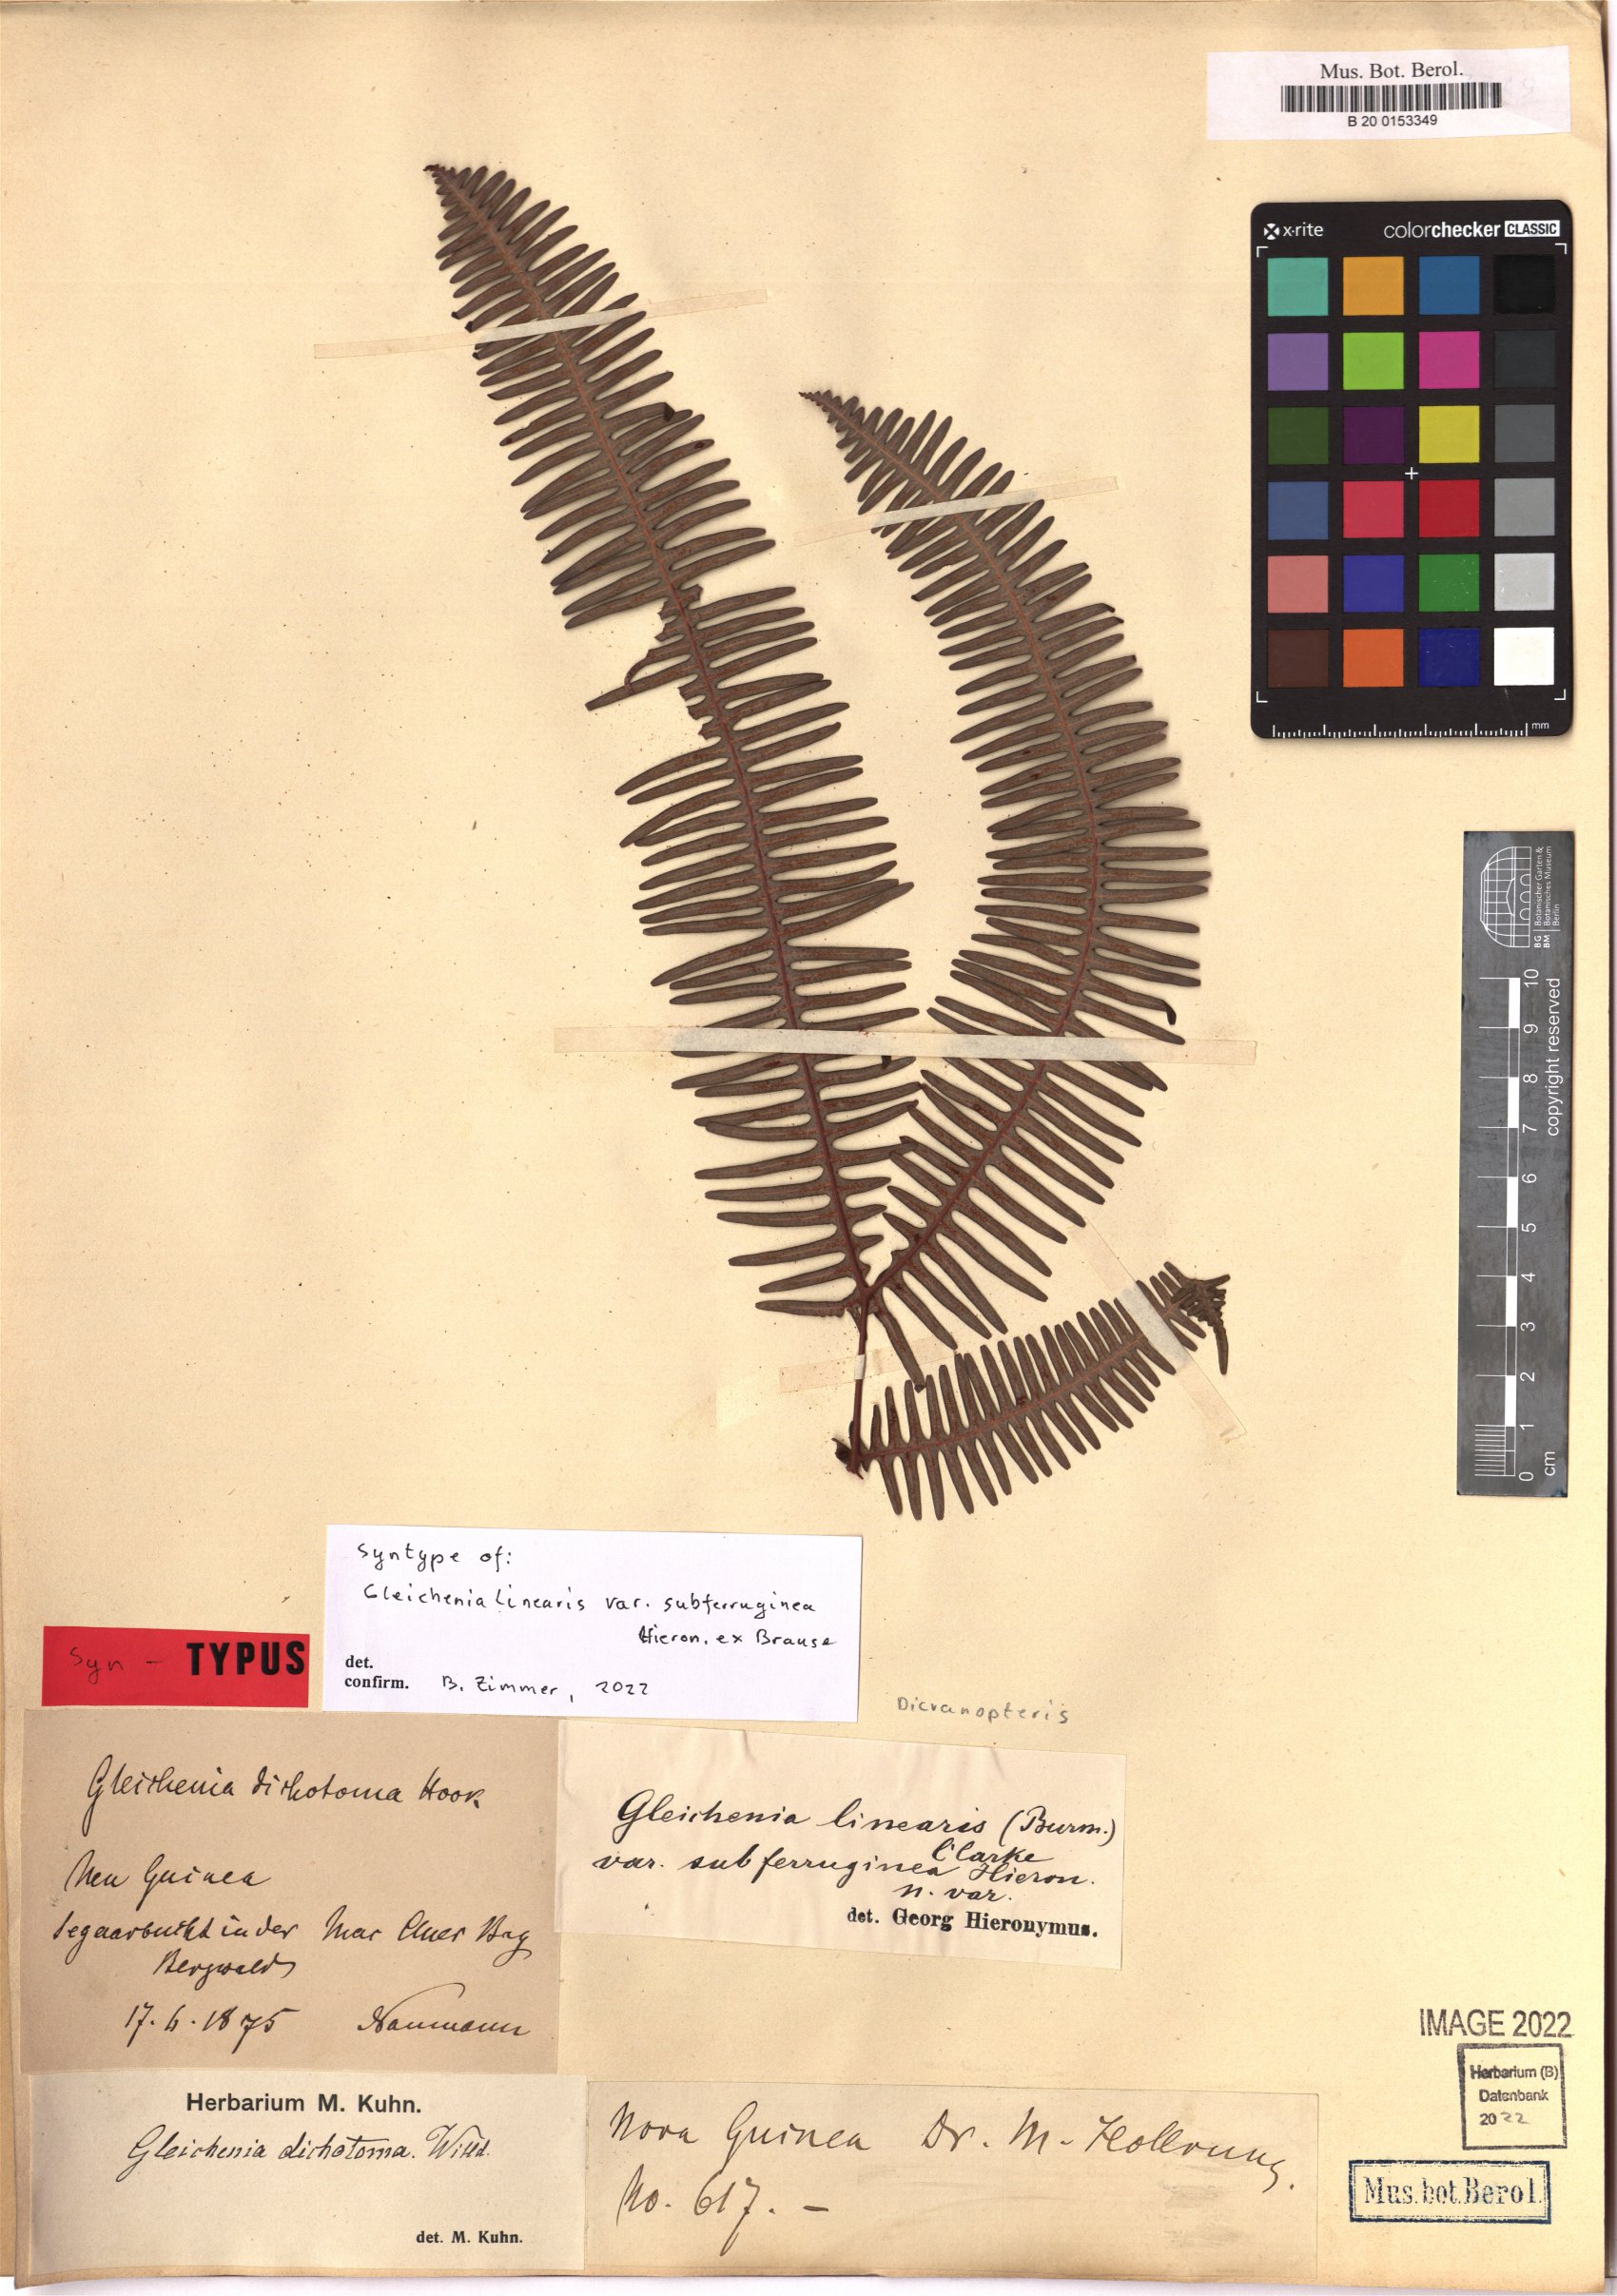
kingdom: Plantae
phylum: Tracheophyta
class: Polypodiopsida
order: Gleicheniales
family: Gleicheniaceae
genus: Dicranopteris
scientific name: Dicranopteris linearis
